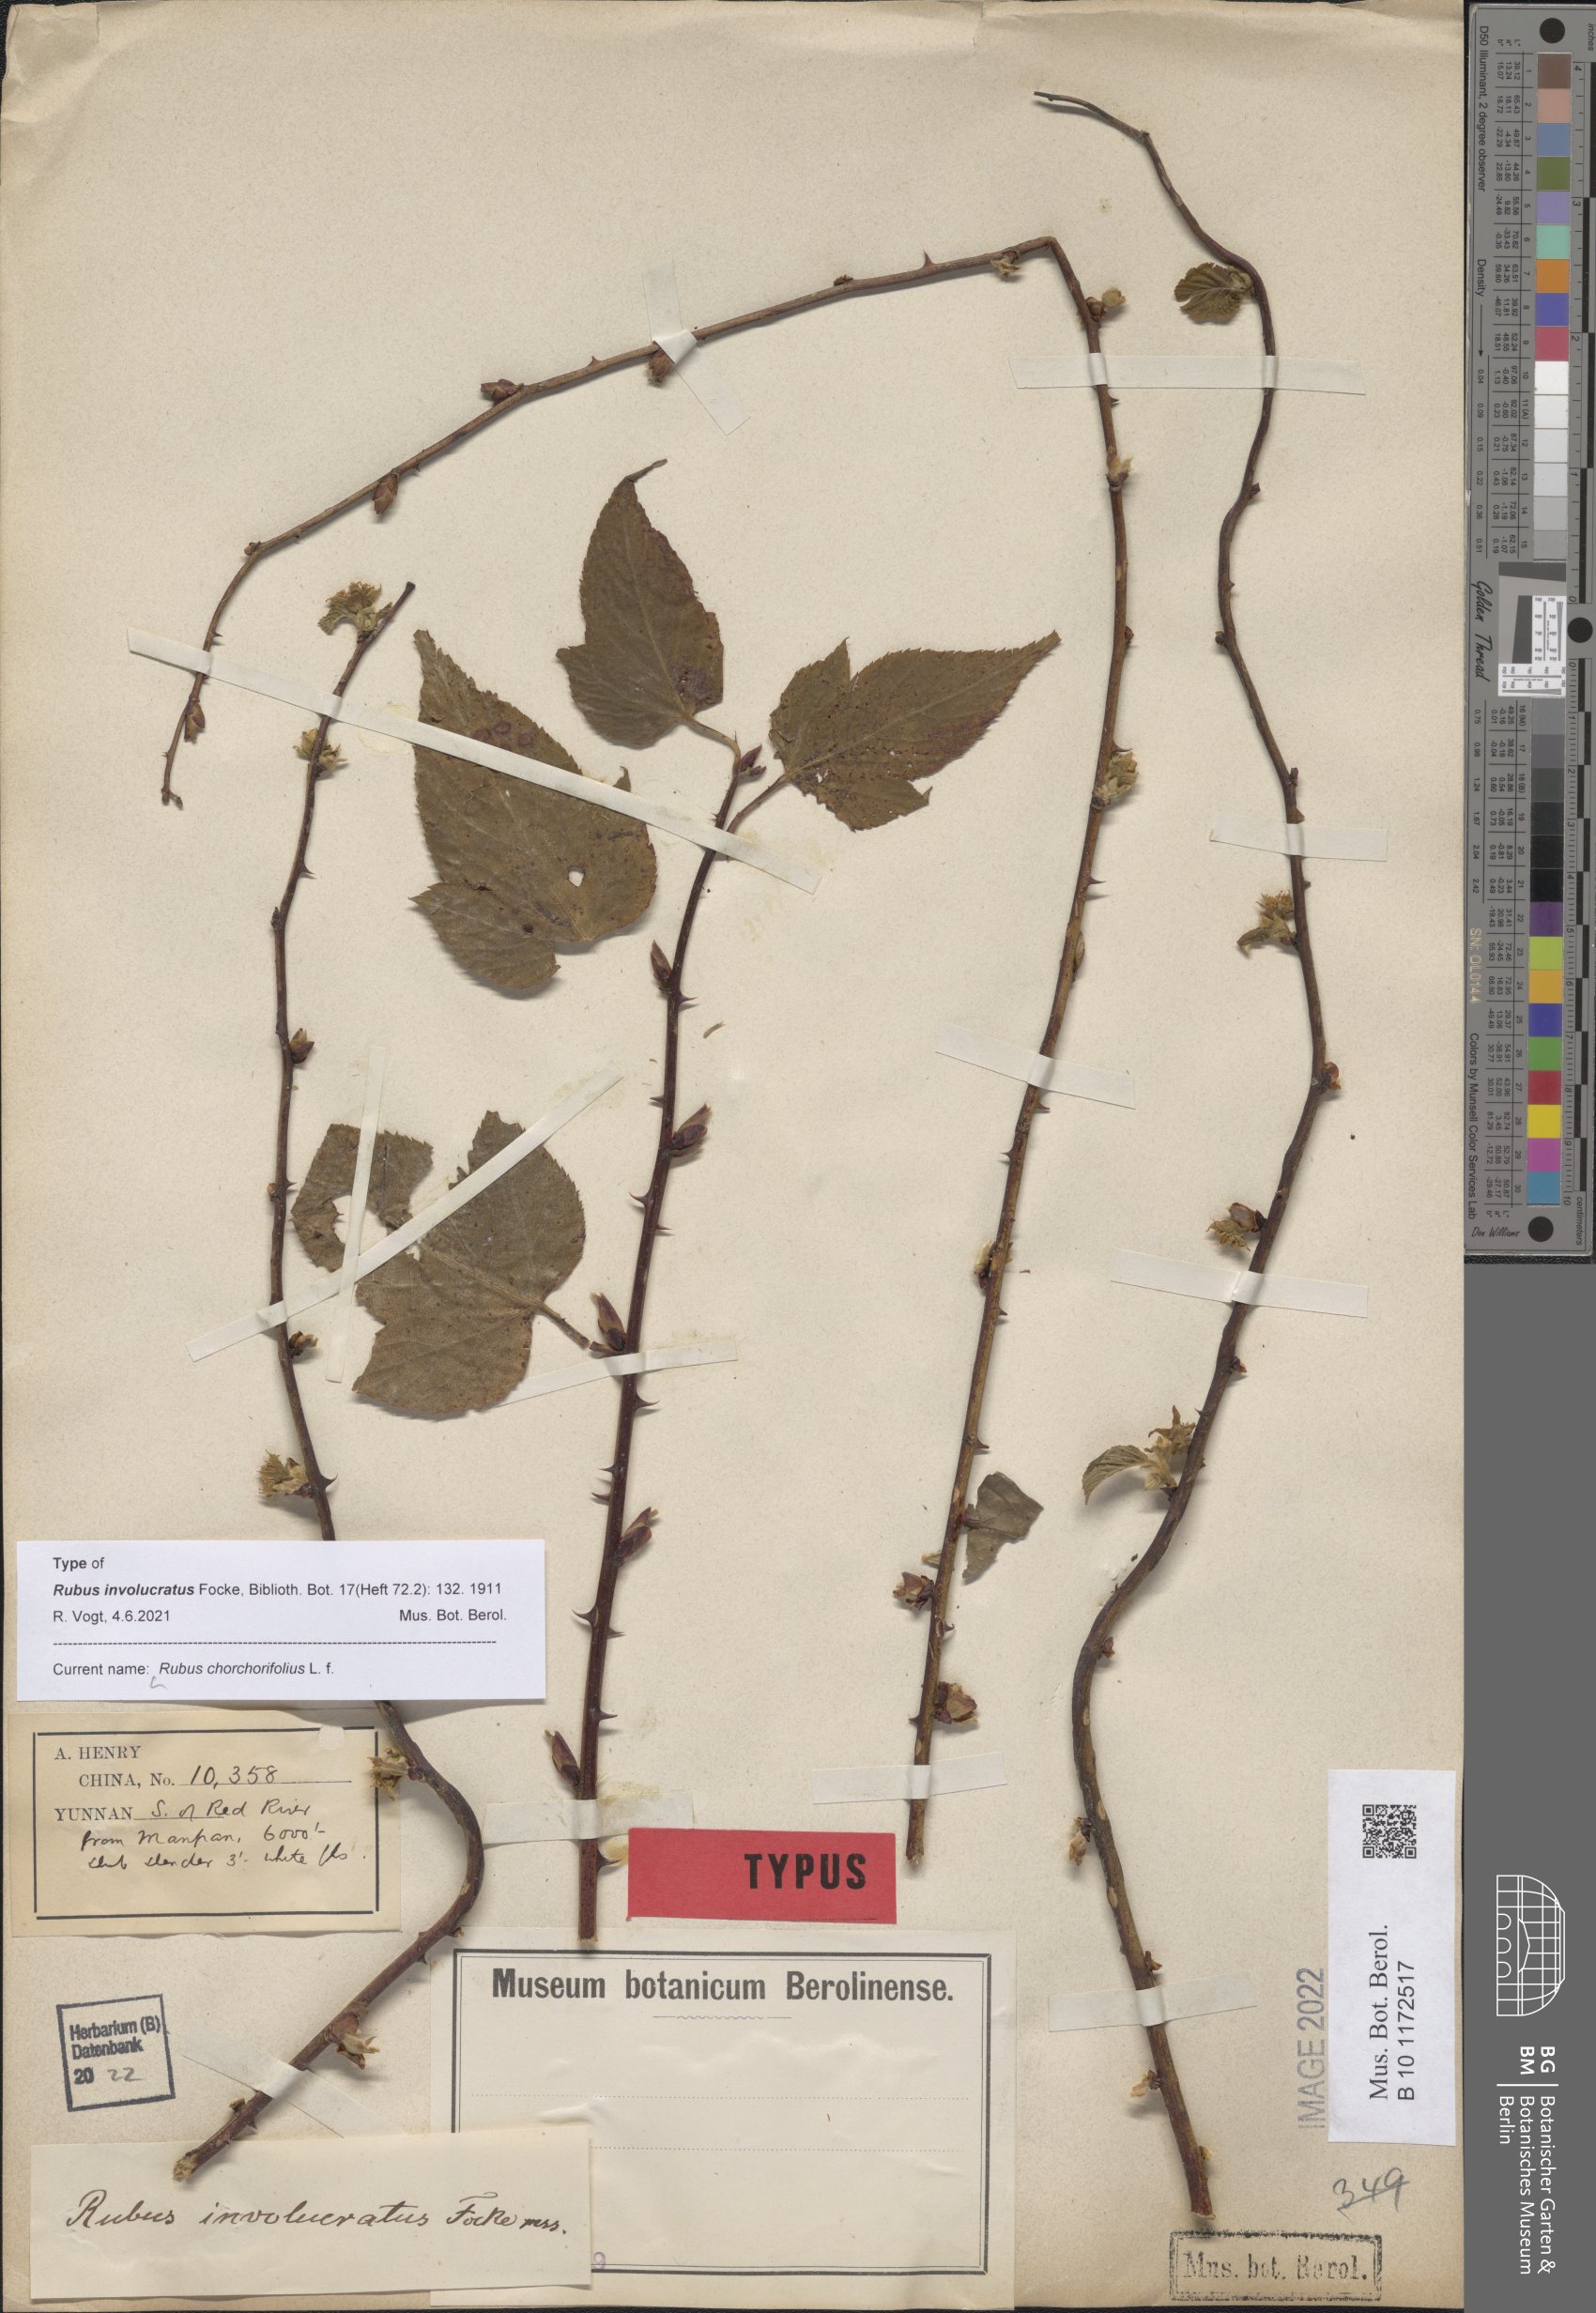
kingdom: Plantae
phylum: Tracheophyta
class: Magnoliopsida
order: Rosales
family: Rosaceae
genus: Rubus
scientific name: Rubus
